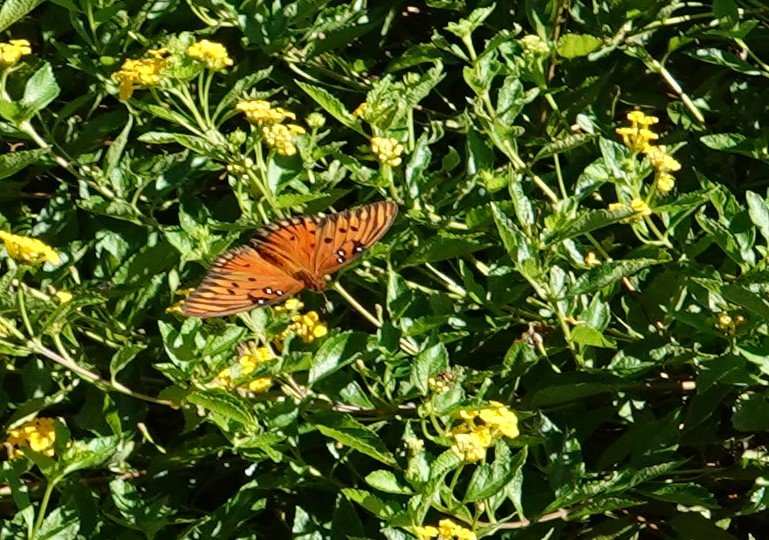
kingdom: Animalia
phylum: Arthropoda
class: Insecta
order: Lepidoptera
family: Nymphalidae
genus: Dione
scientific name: Dione vanillae
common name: Gulf Fritillary
